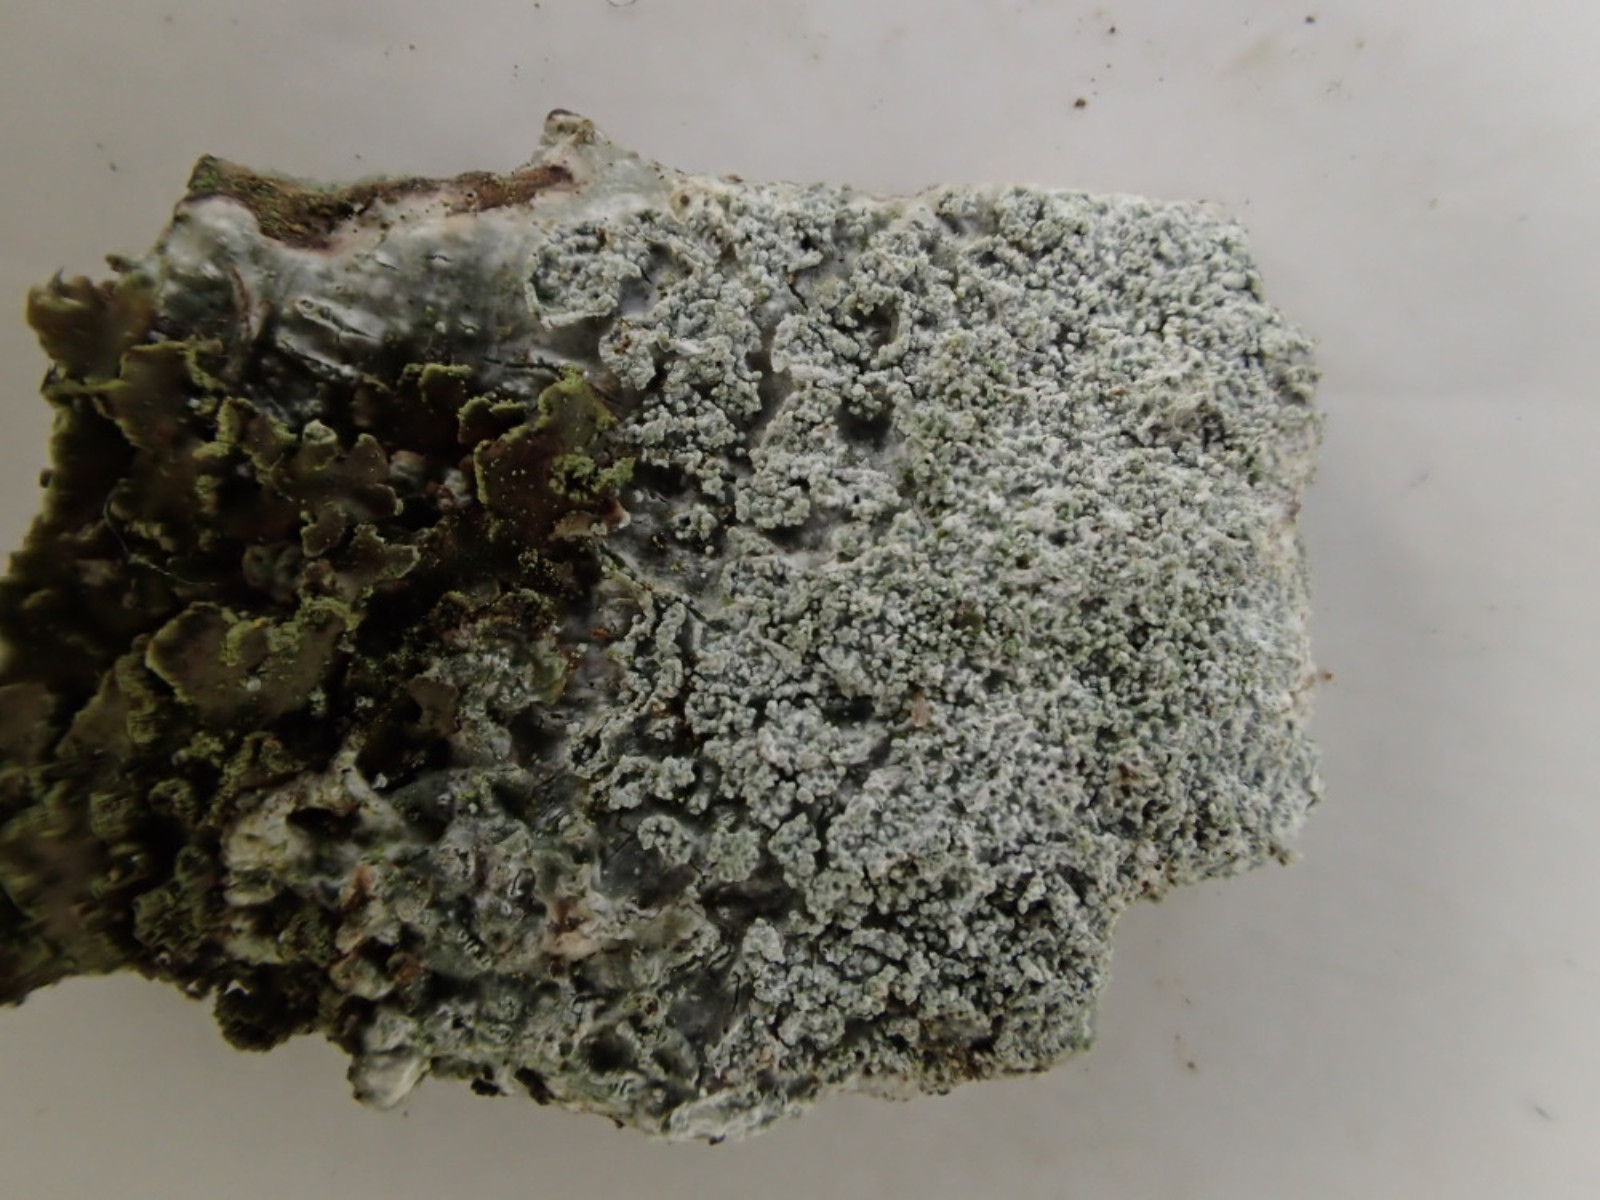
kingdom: Fungi
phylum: Ascomycota
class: Lecanoromycetes
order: Pertusariales
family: Pertusariaceae
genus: Lepra
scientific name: Lepra albescens
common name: hvidmelet prikvortelav
